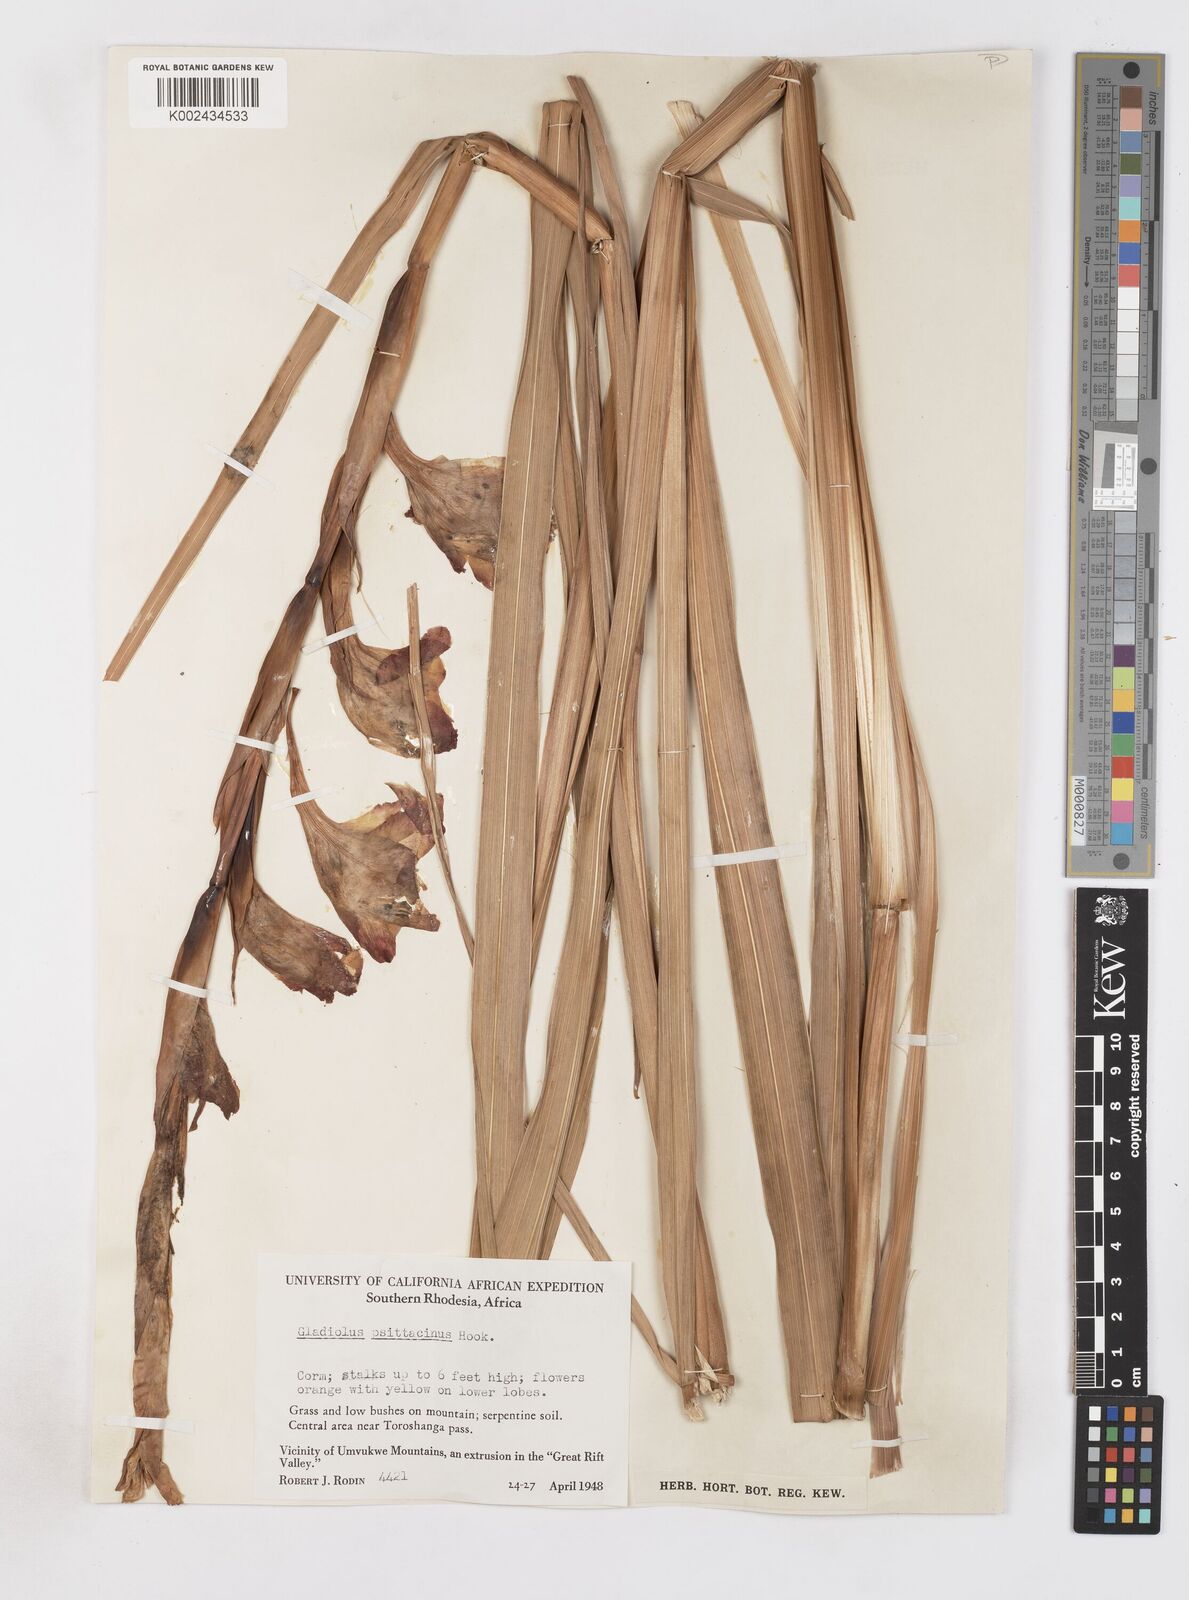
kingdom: Plantae
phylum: Tracheophyta
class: Liliopsida
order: Asparagales
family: Iridaceae
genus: Gladiolus
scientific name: Gladiolus dalenii
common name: Cornflag
